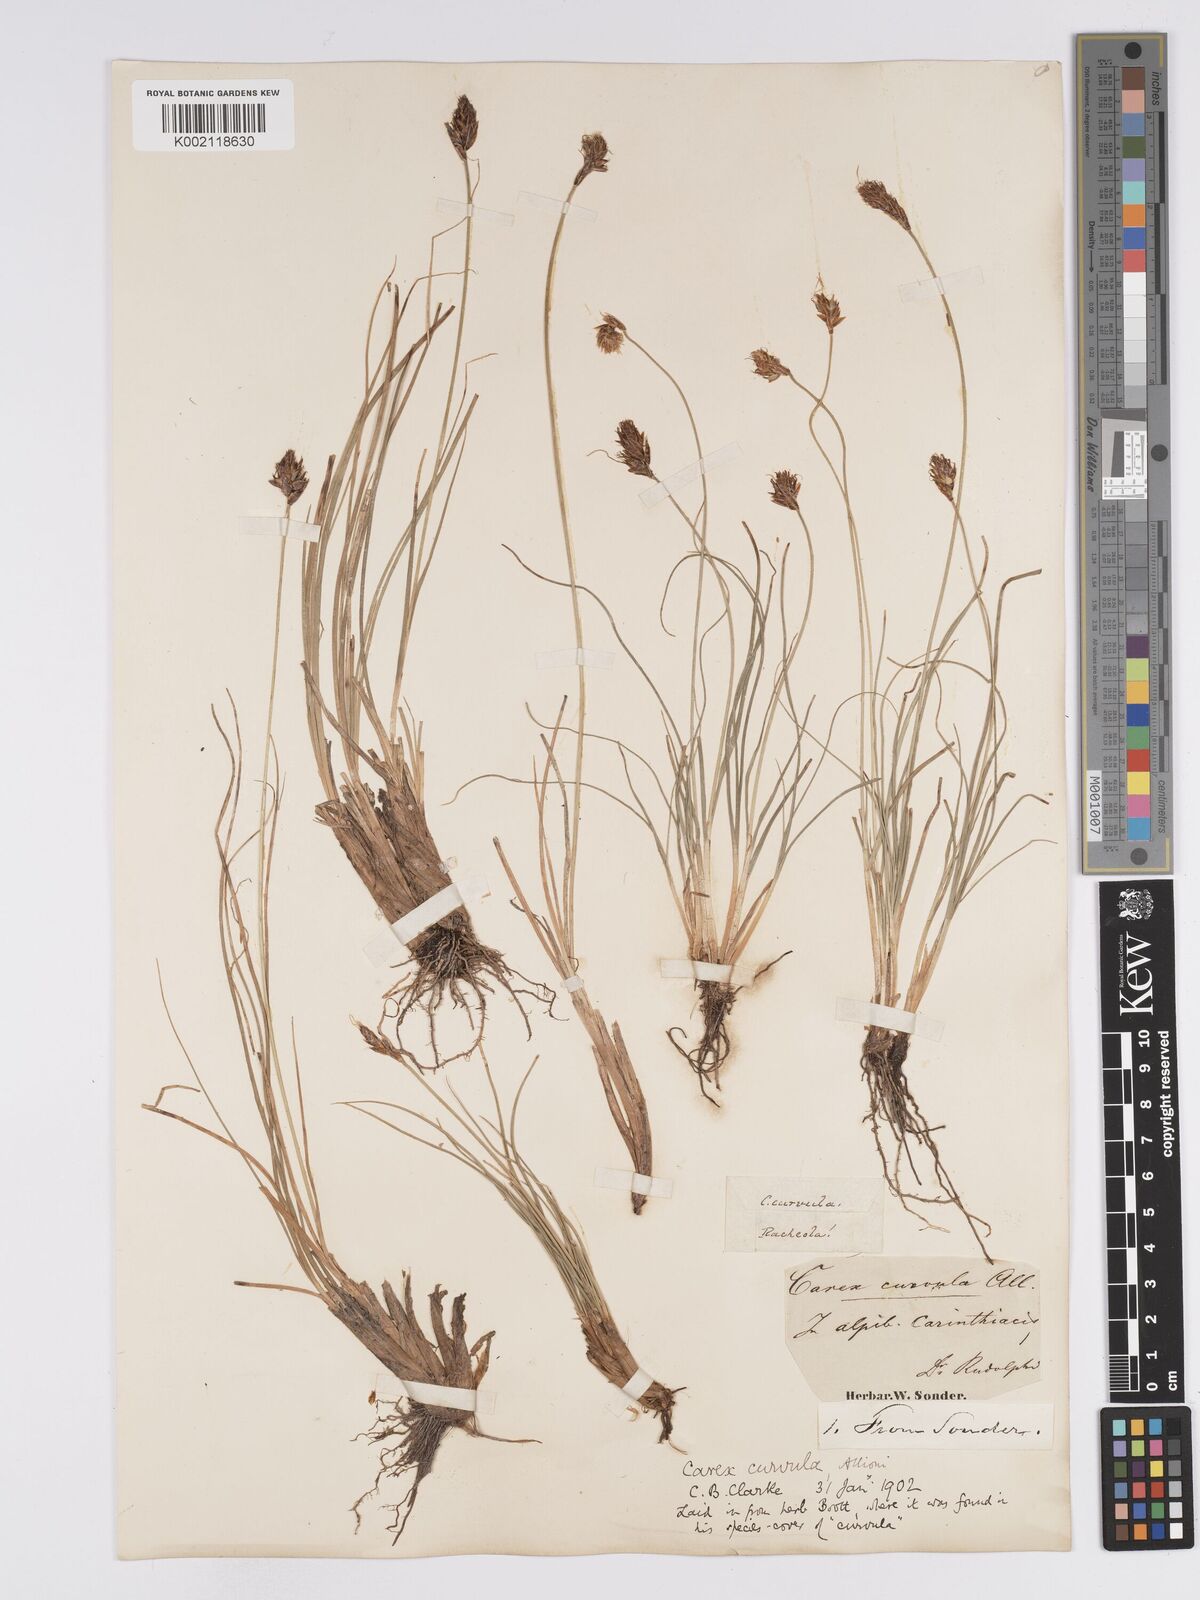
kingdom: Plantae
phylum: Tracheophyta
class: Liliopsida
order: Poales
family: Cyperaceae
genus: Carex
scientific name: Carex curvula
